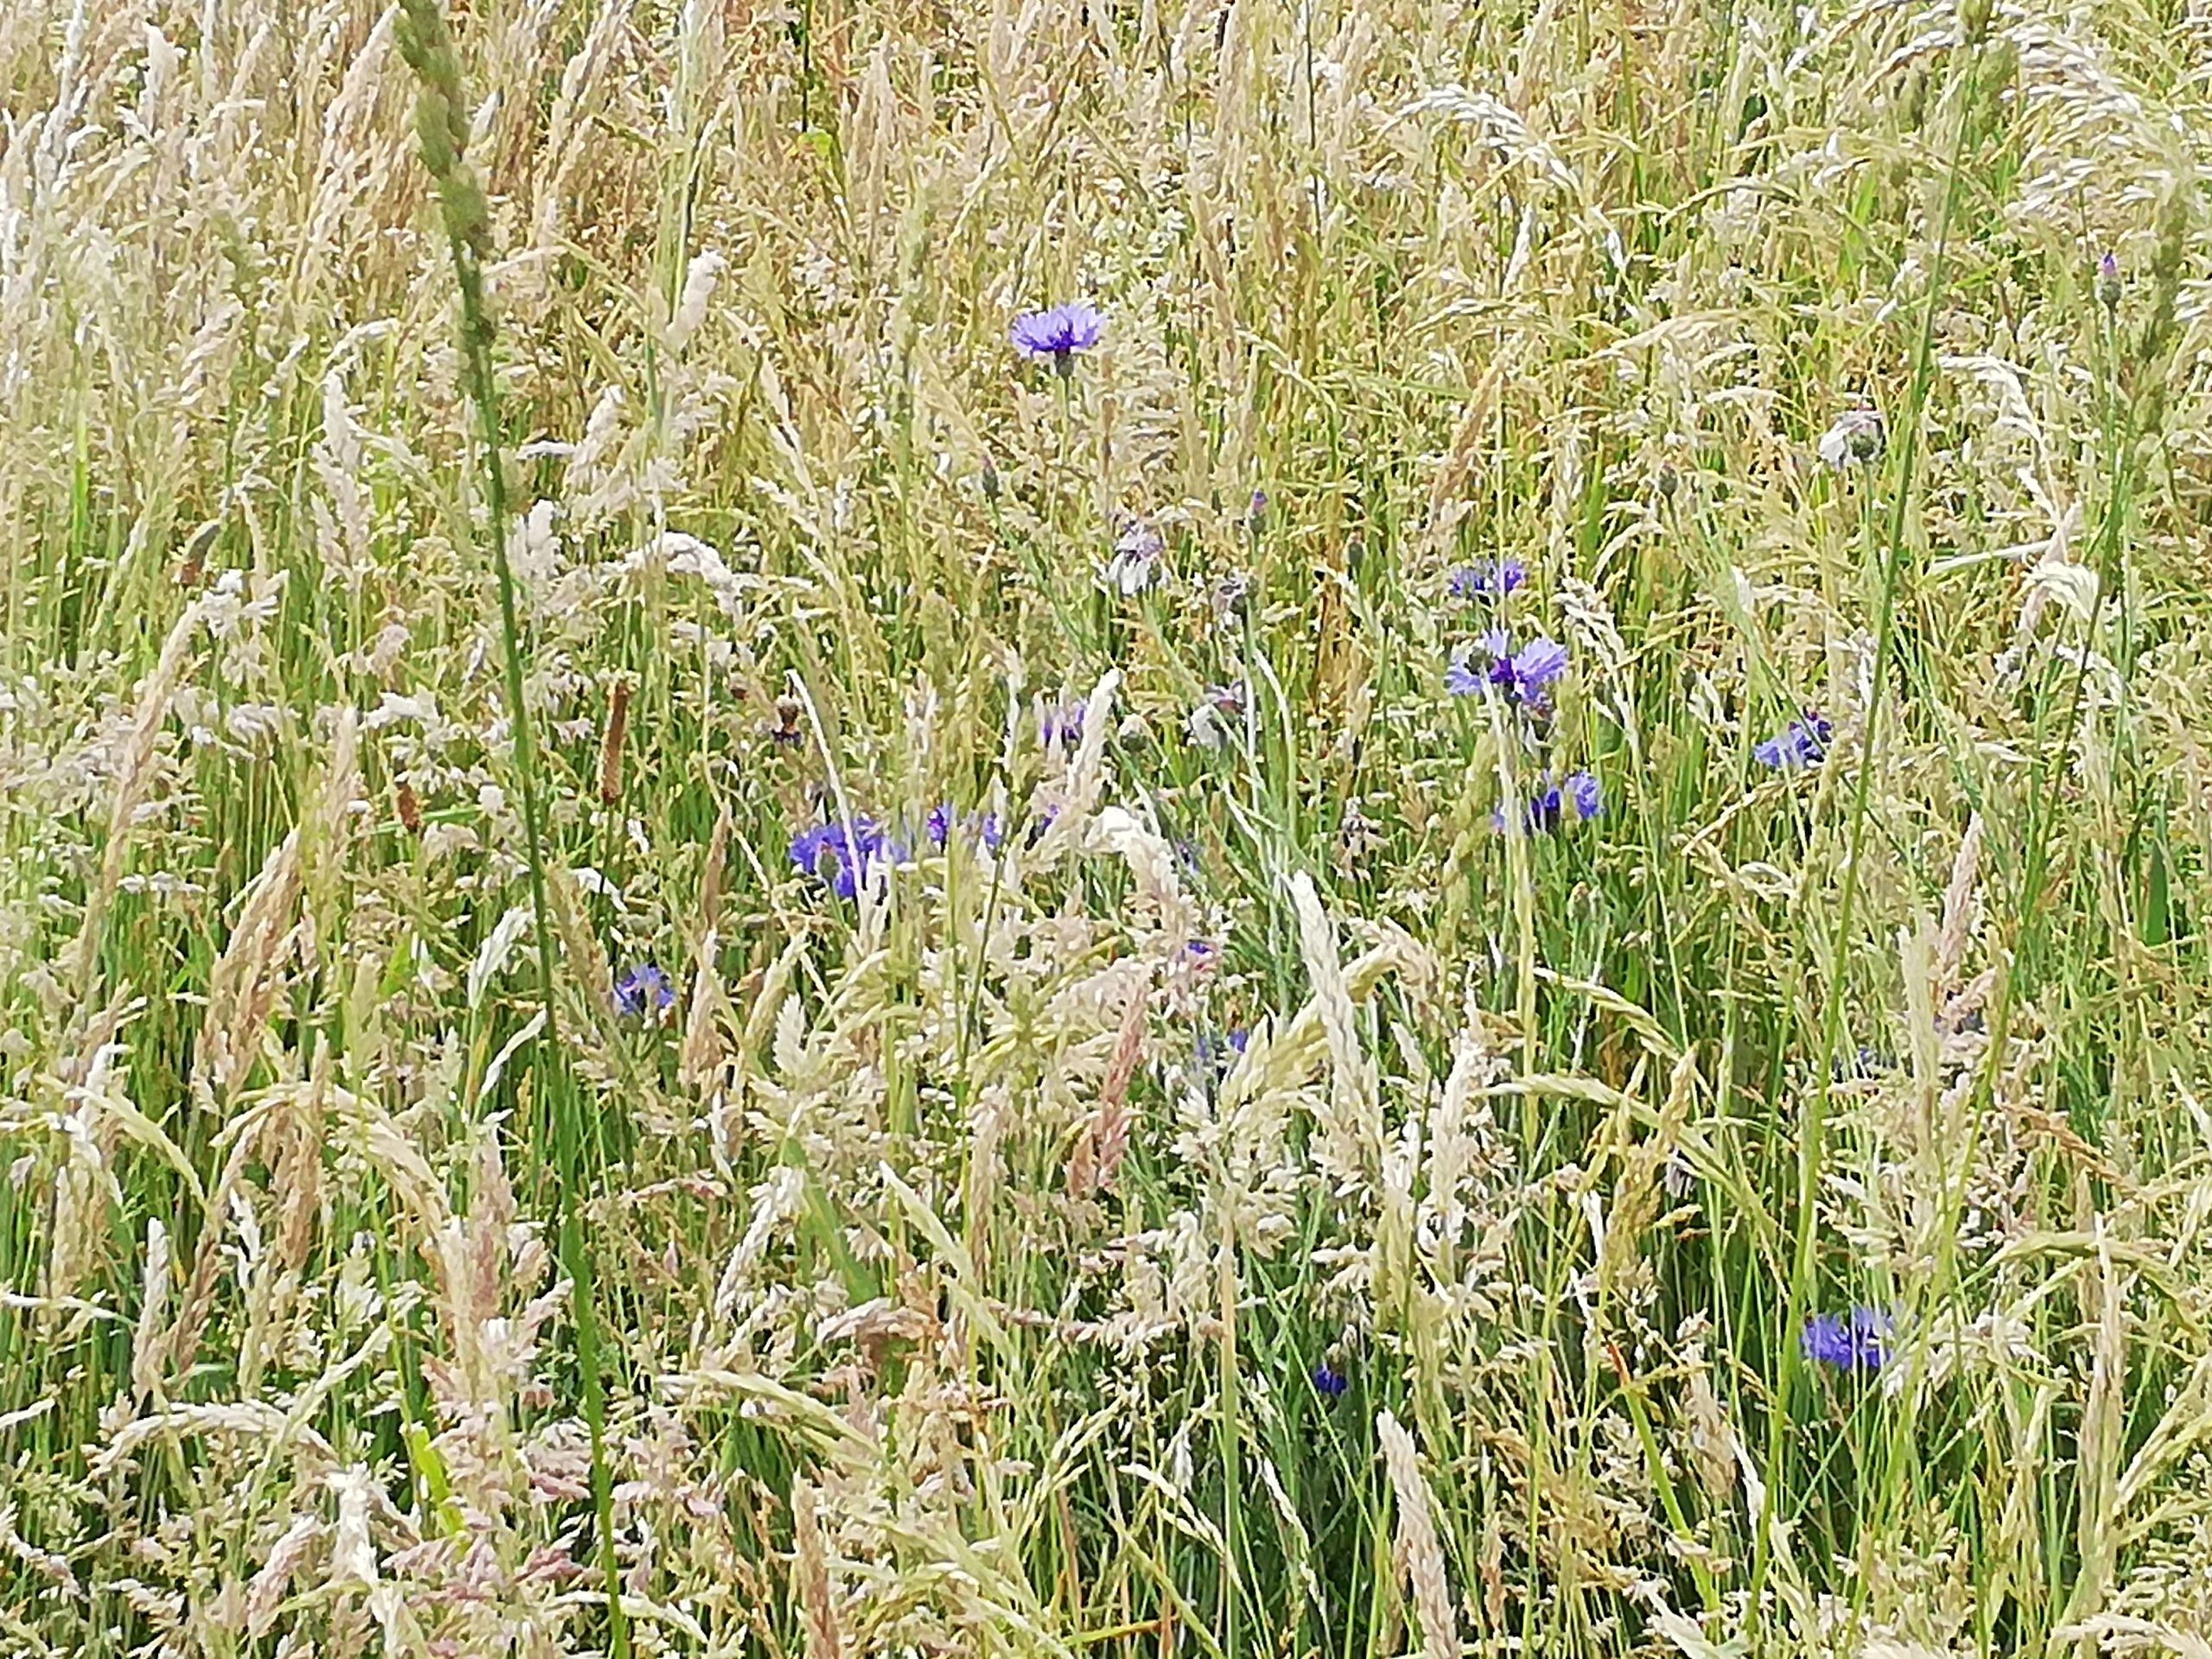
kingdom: Plantae
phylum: Tracheophyta
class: Magnoliopsida
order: Asterales
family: Asteraceae
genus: Centaurea
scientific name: Centaurea cyanus
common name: Kornblomst
